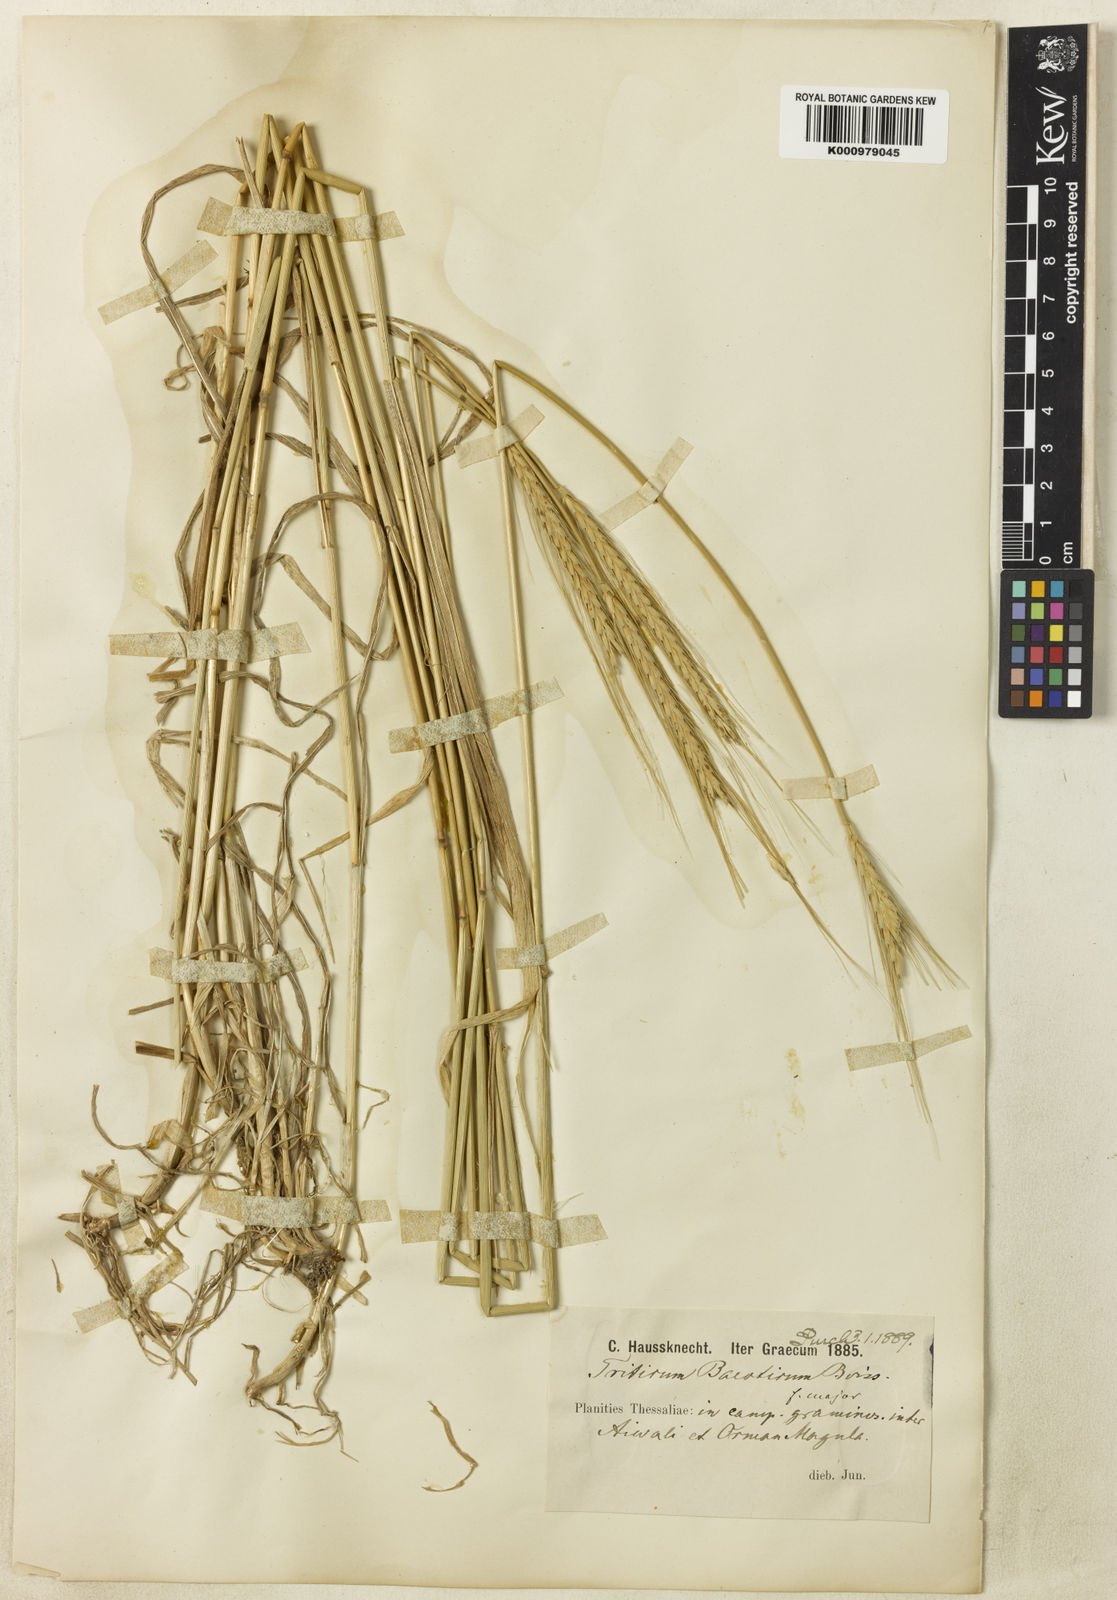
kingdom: Plantae
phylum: Tracheophyta
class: Liliopsida
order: Poales
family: Poaceae
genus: Triticum
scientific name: Triticum monococcum
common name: Einkorn
